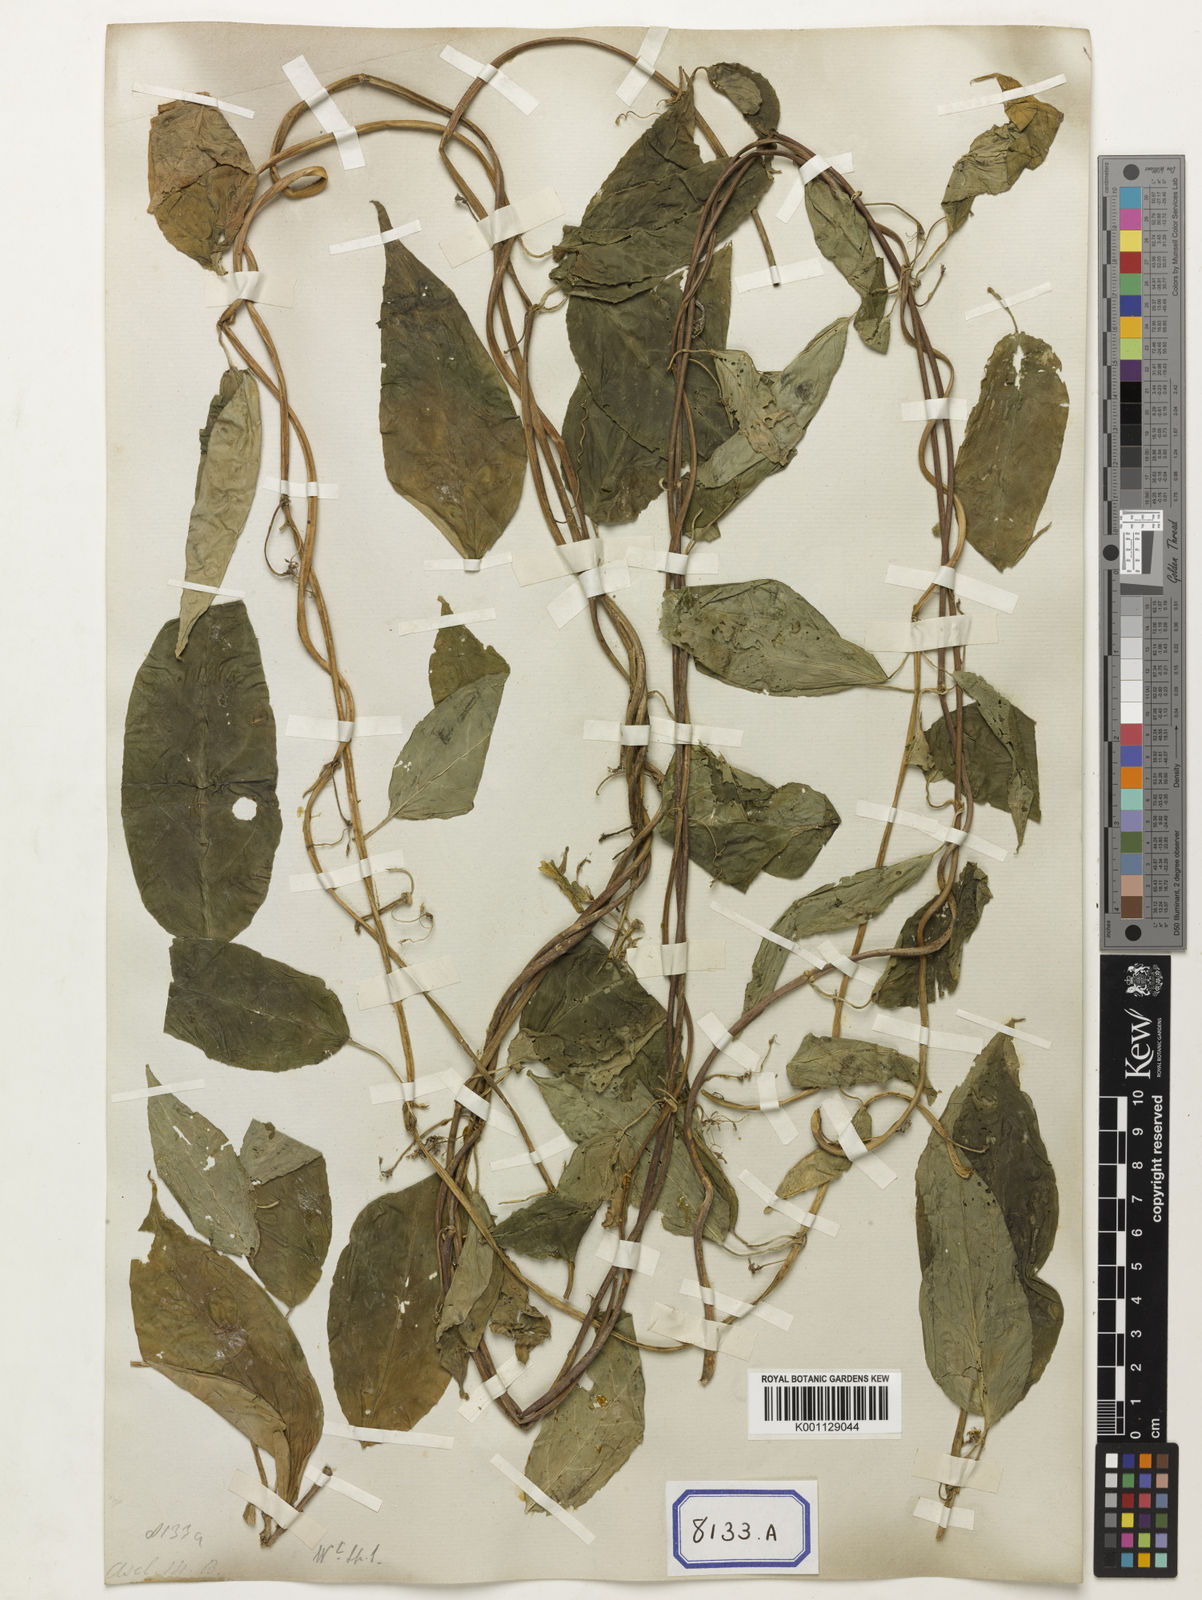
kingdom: Plantae
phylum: Tracheophyta
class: Magnoliopsida
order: Gentianales
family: Apocynaceae
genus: Ceropegia
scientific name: Ceropegia lucida
